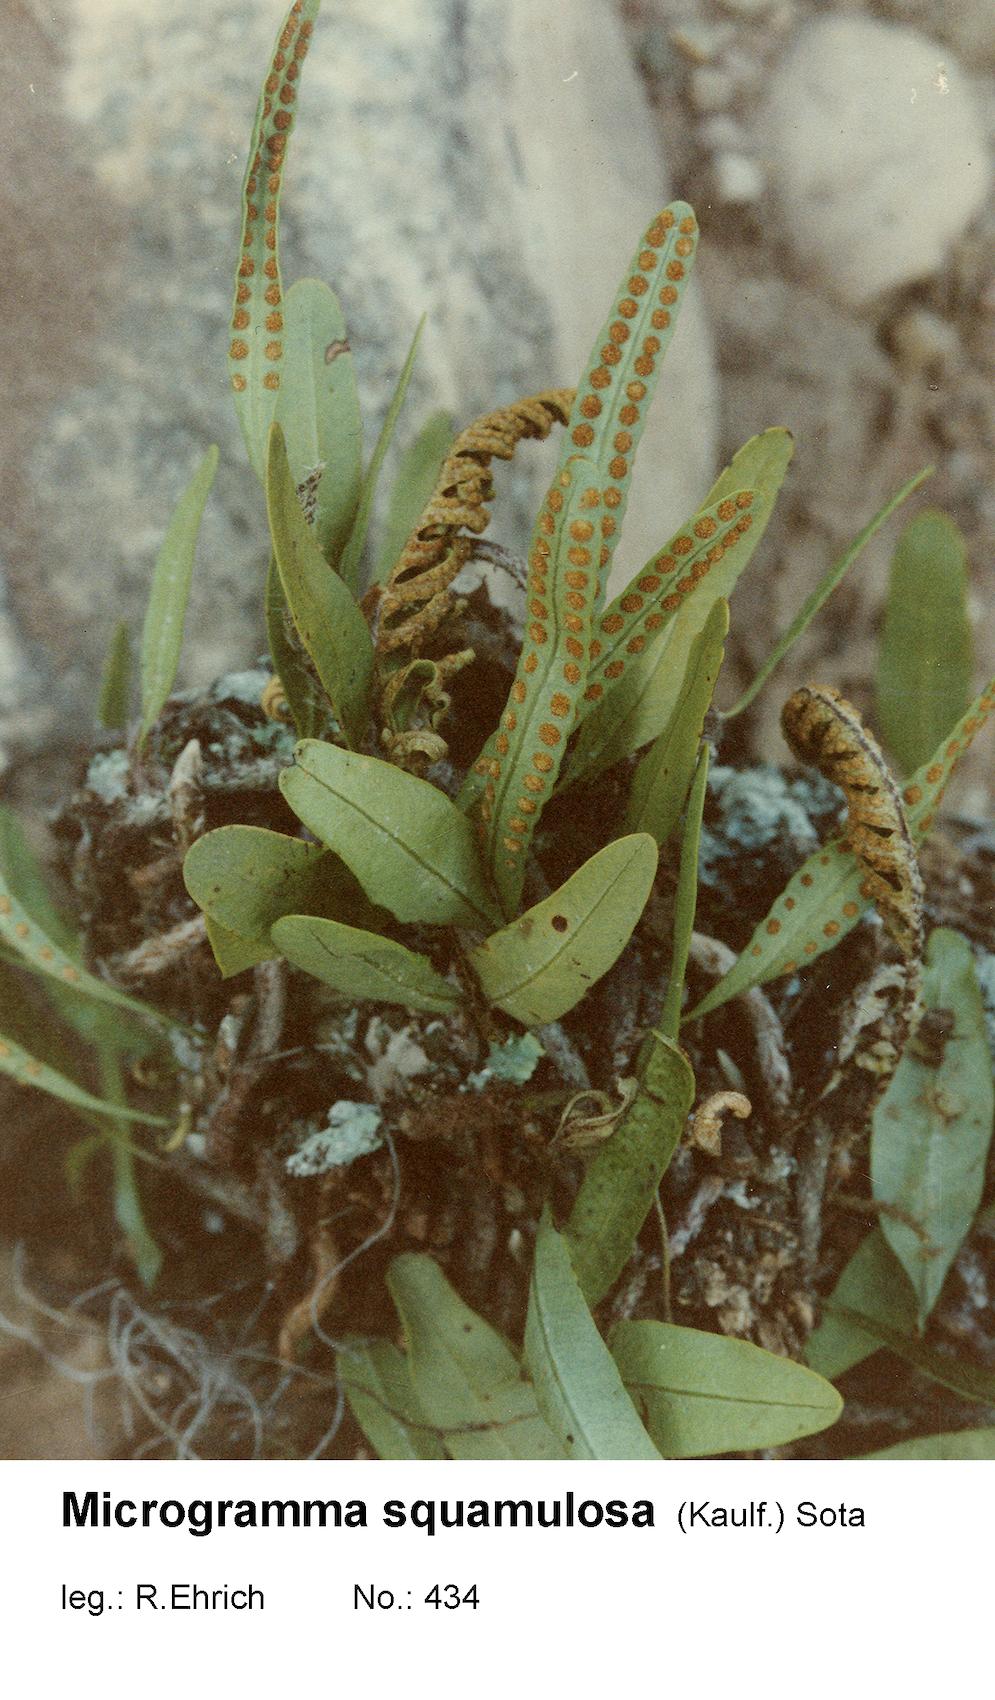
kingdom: Plantae
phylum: Tracheophyta
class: Polypodiopsida
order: Polypodiales
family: Polypodiaceae
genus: Microgramma
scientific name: Microgramma squamulosa
